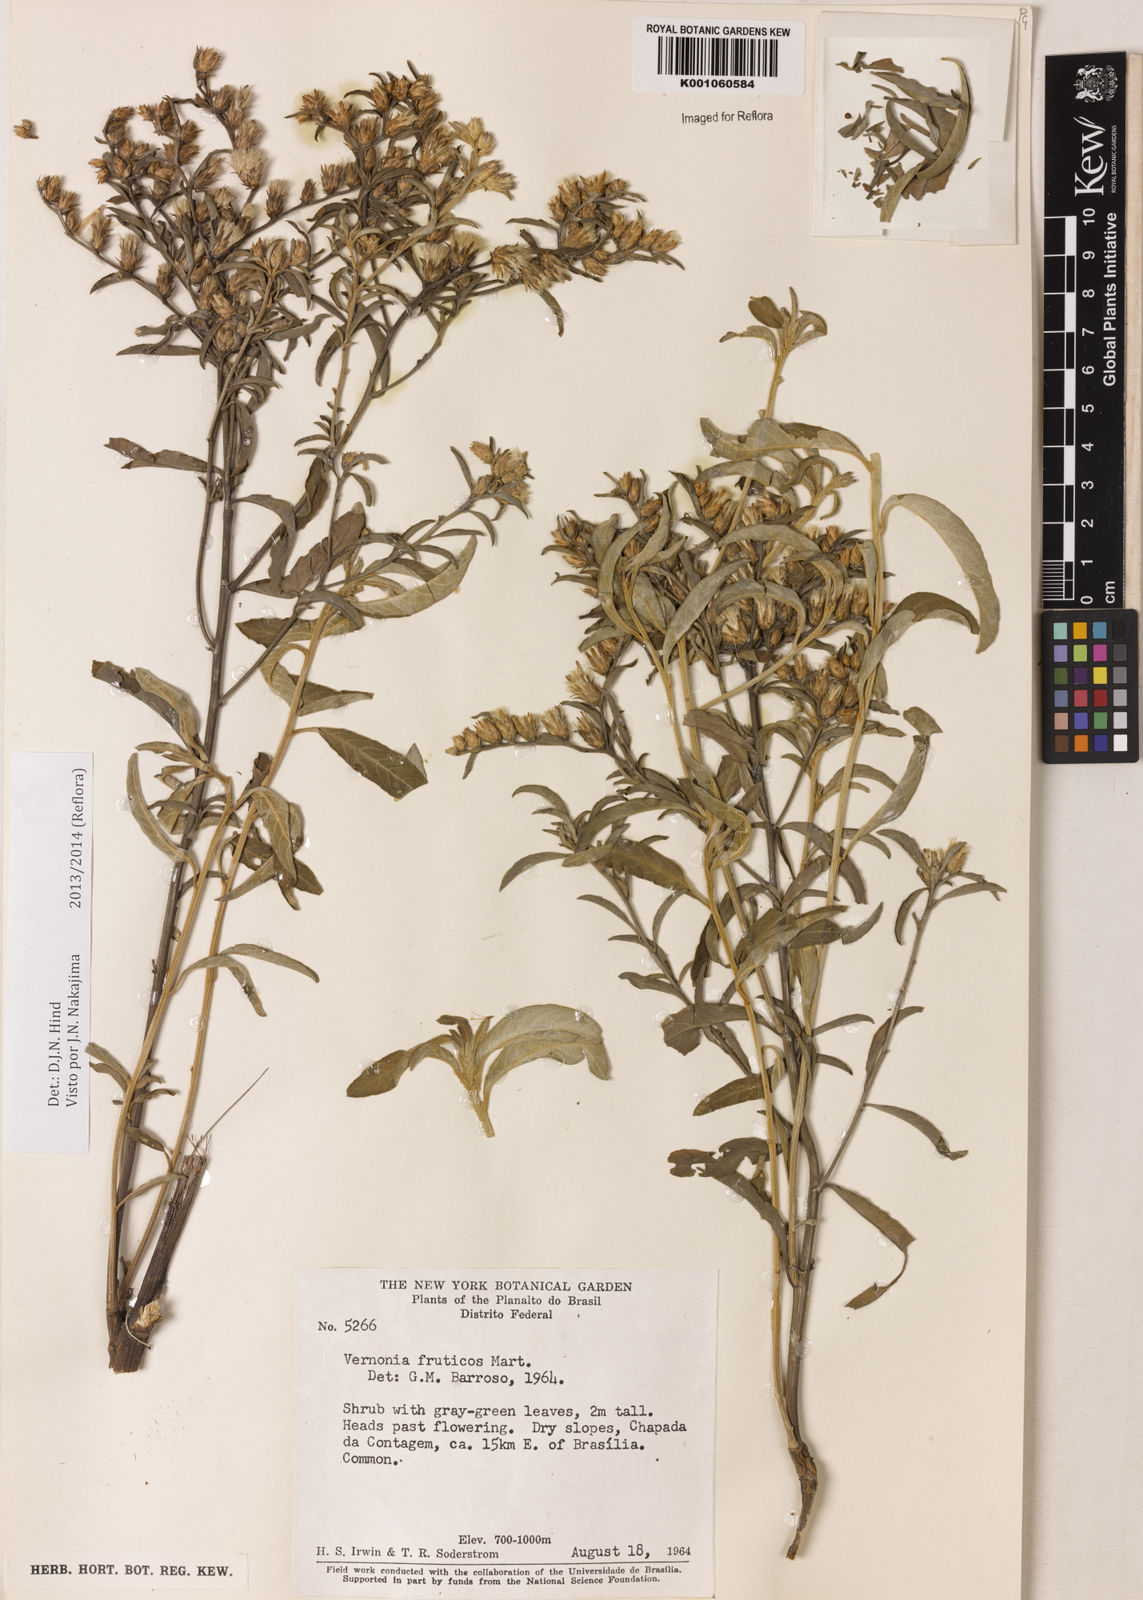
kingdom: Plantae
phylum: Tracheophyta
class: Magnoliopsida
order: Asterales
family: Asteraceae
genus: Lepidaploa
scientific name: Lepidaploa rufogrisea
